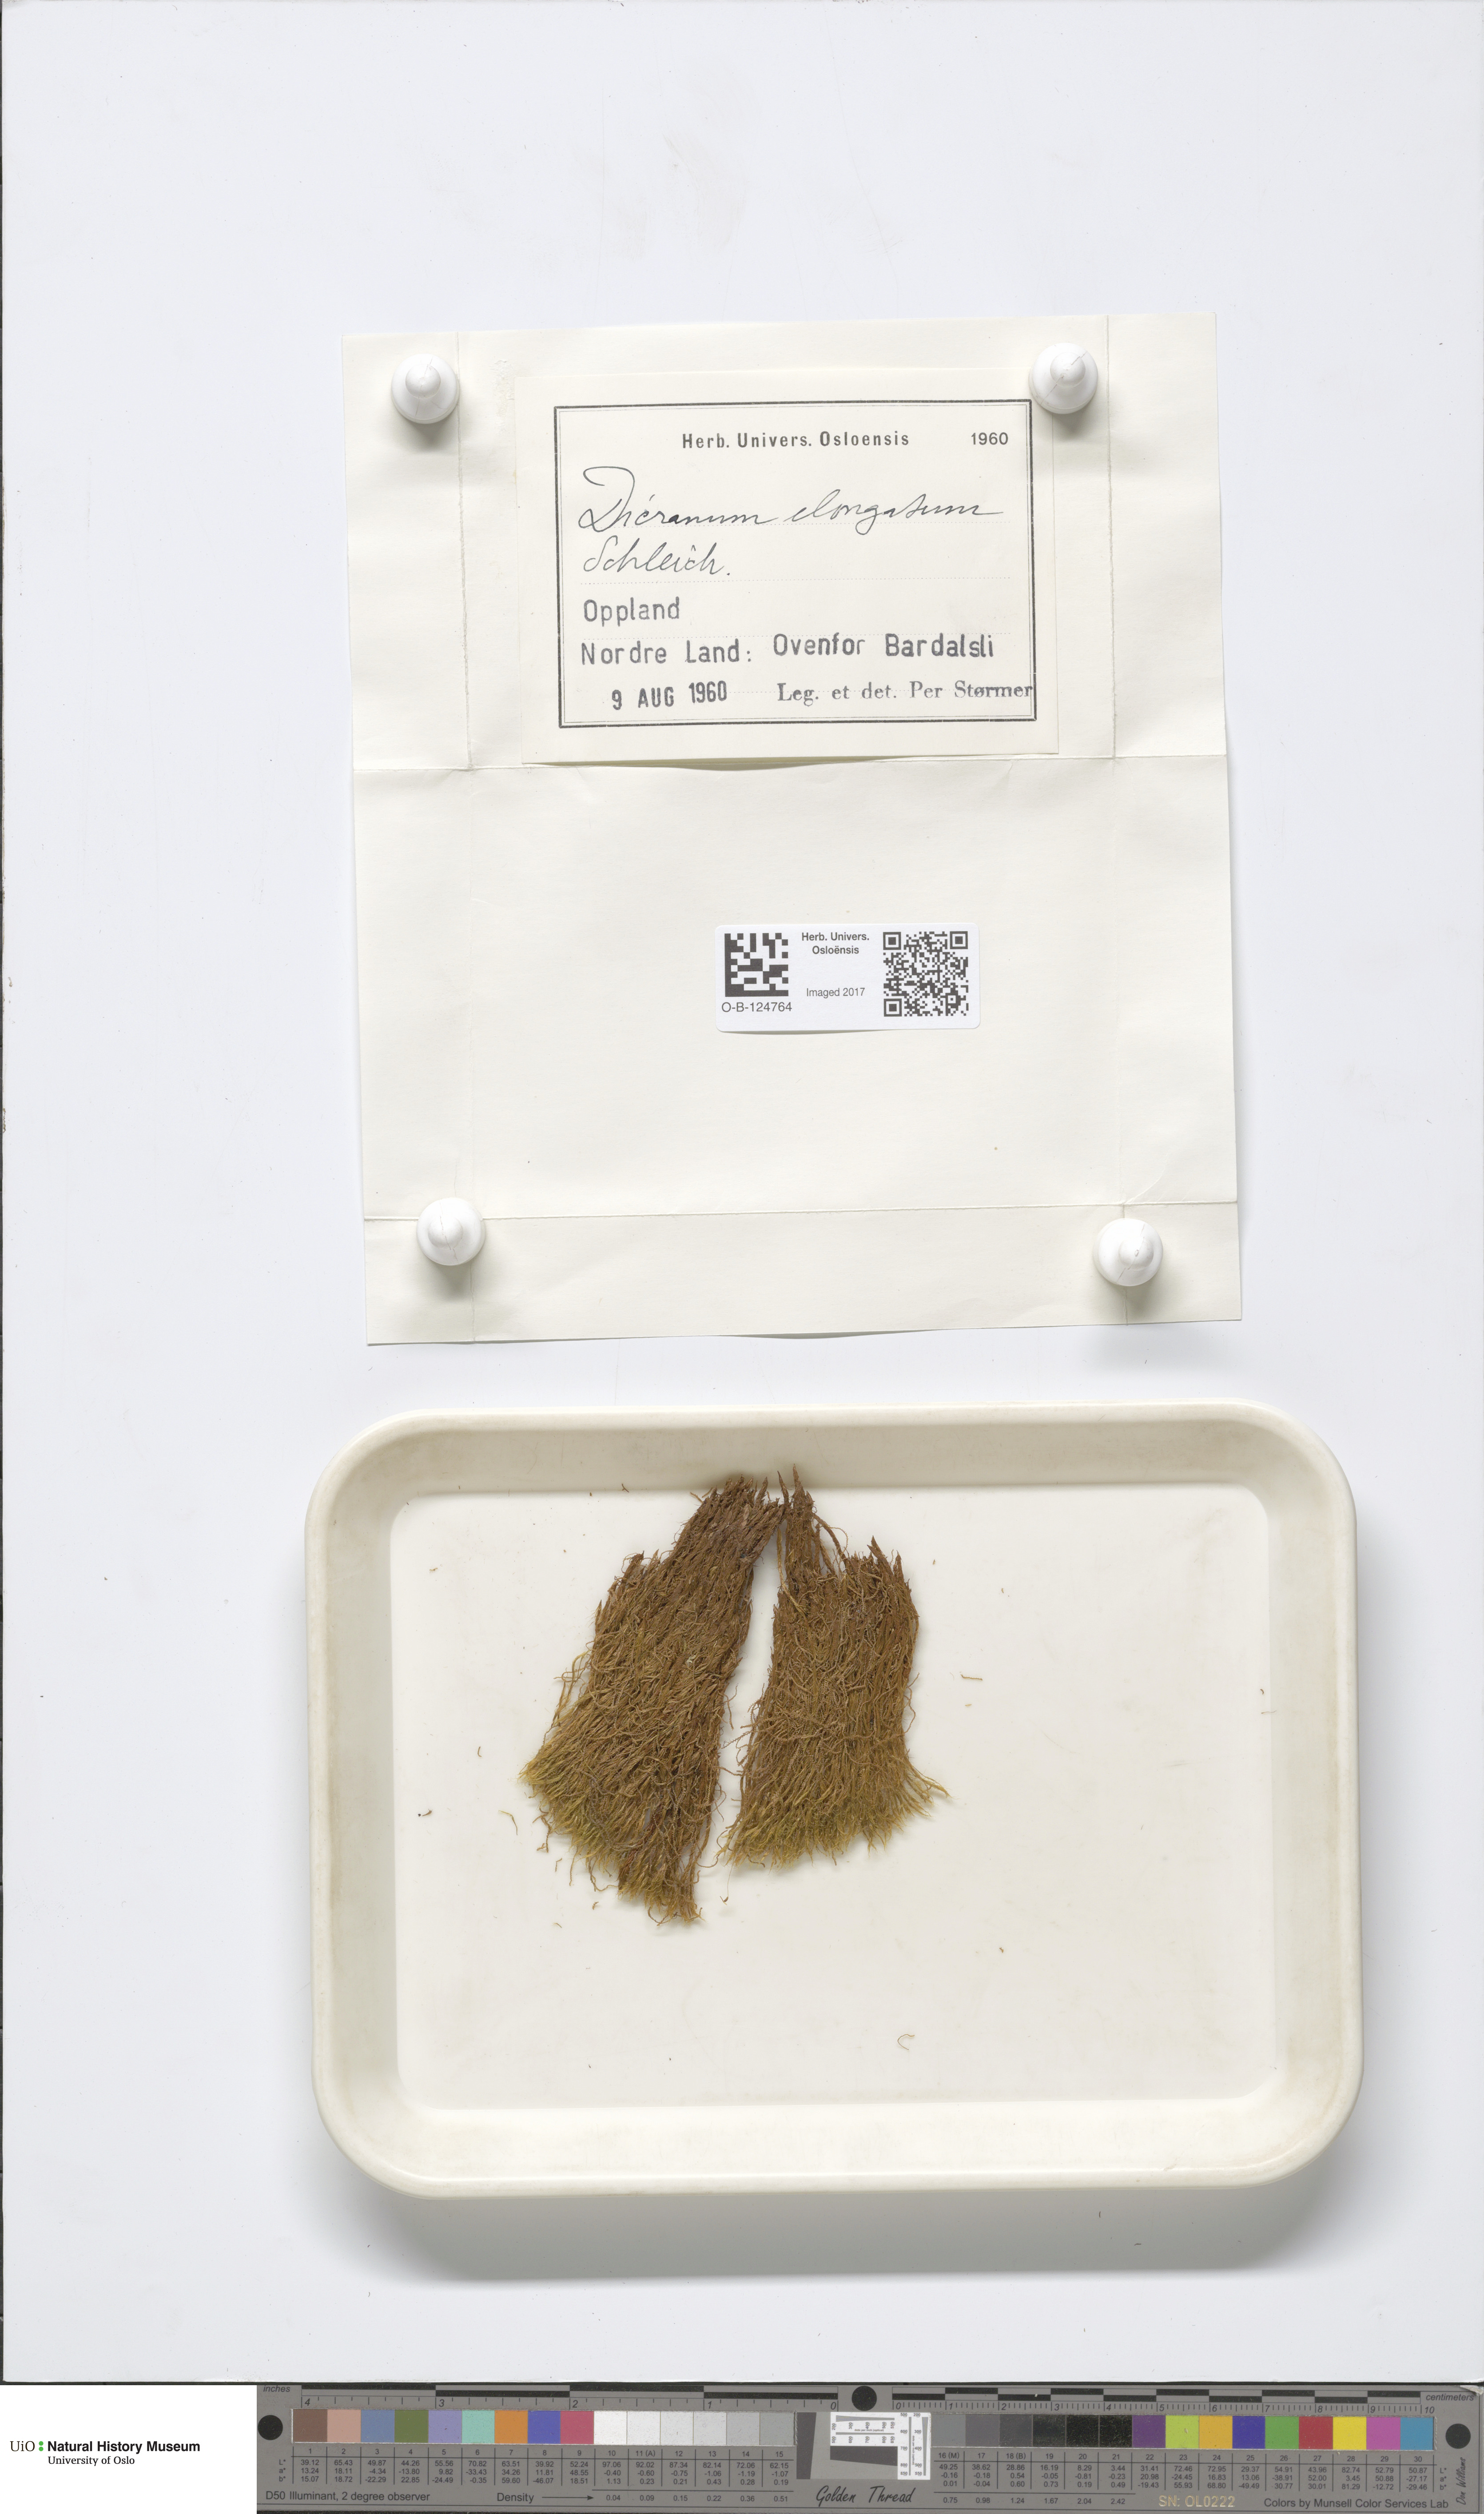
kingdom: Plantae
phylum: Bryophyta
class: Bryopsida
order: Dicranales
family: Dicranaceae
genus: Dicranum
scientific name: Dicranum elongatum
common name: Long-forked broom moss
